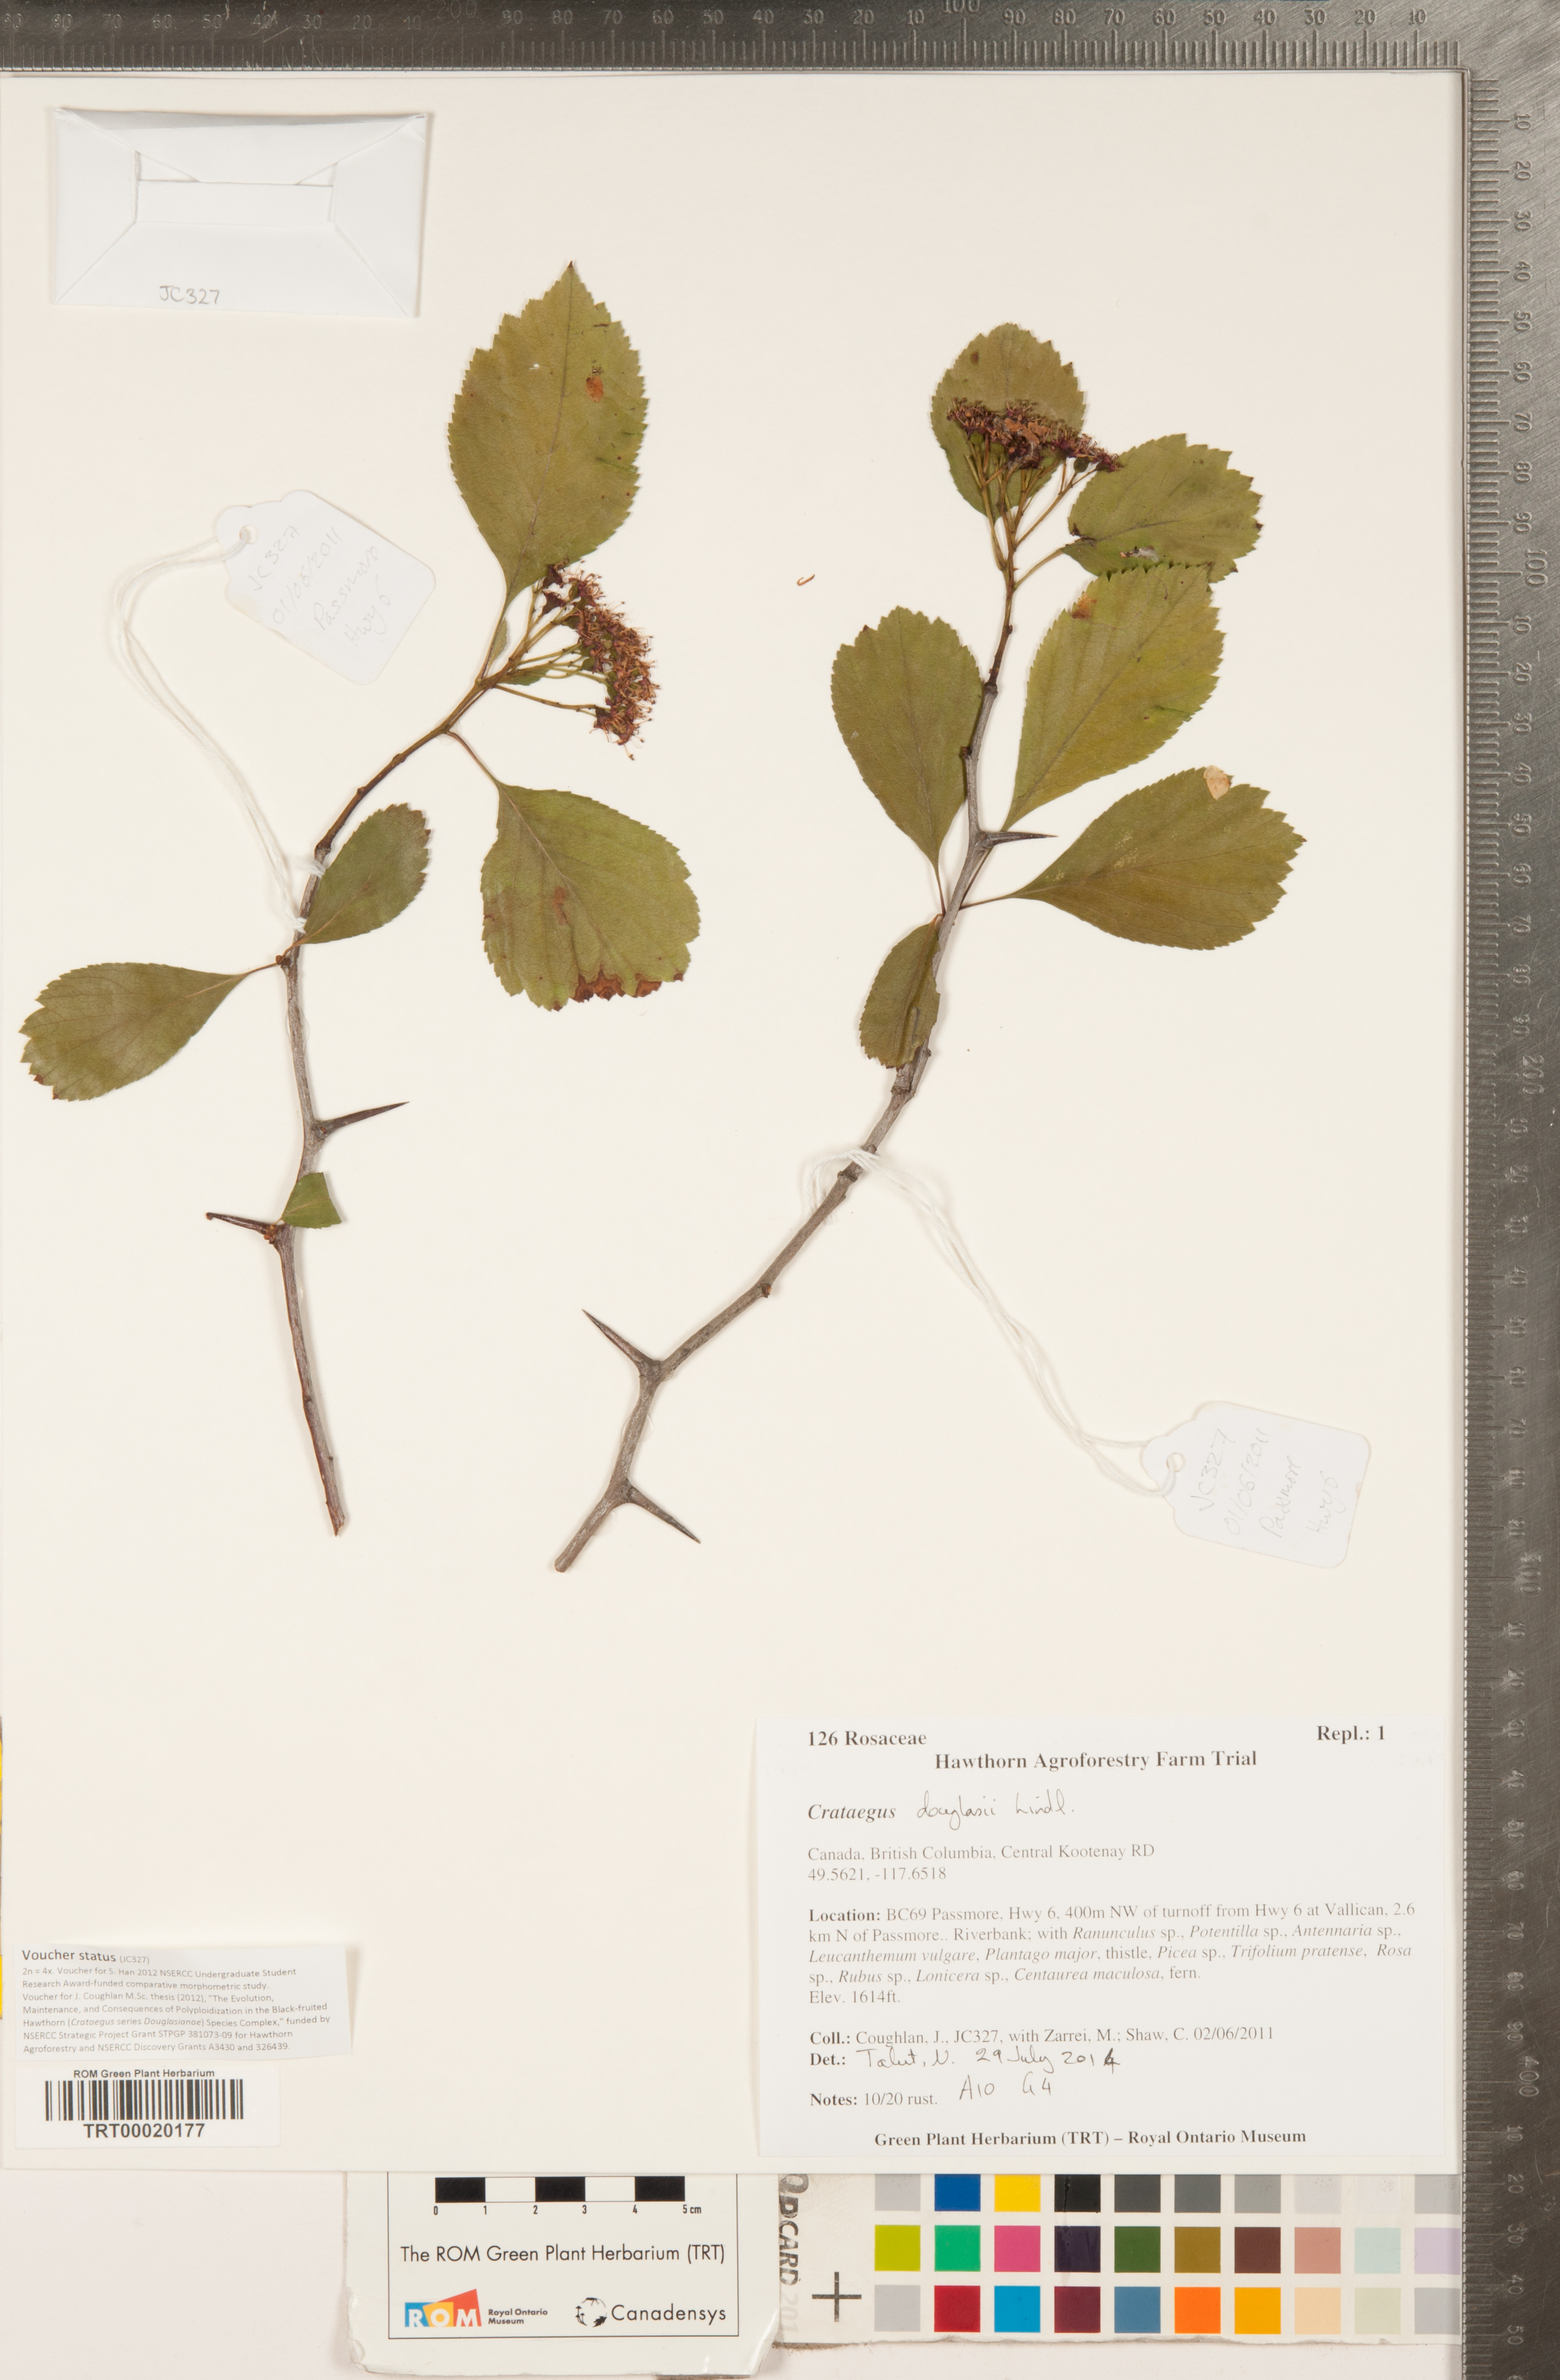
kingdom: Plantae
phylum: Tracheophyta
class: Magnoliopsida
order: Rosales
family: Rosaceae
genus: Crataegus
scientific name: Crataegus douglasii
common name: Black hawthorn
